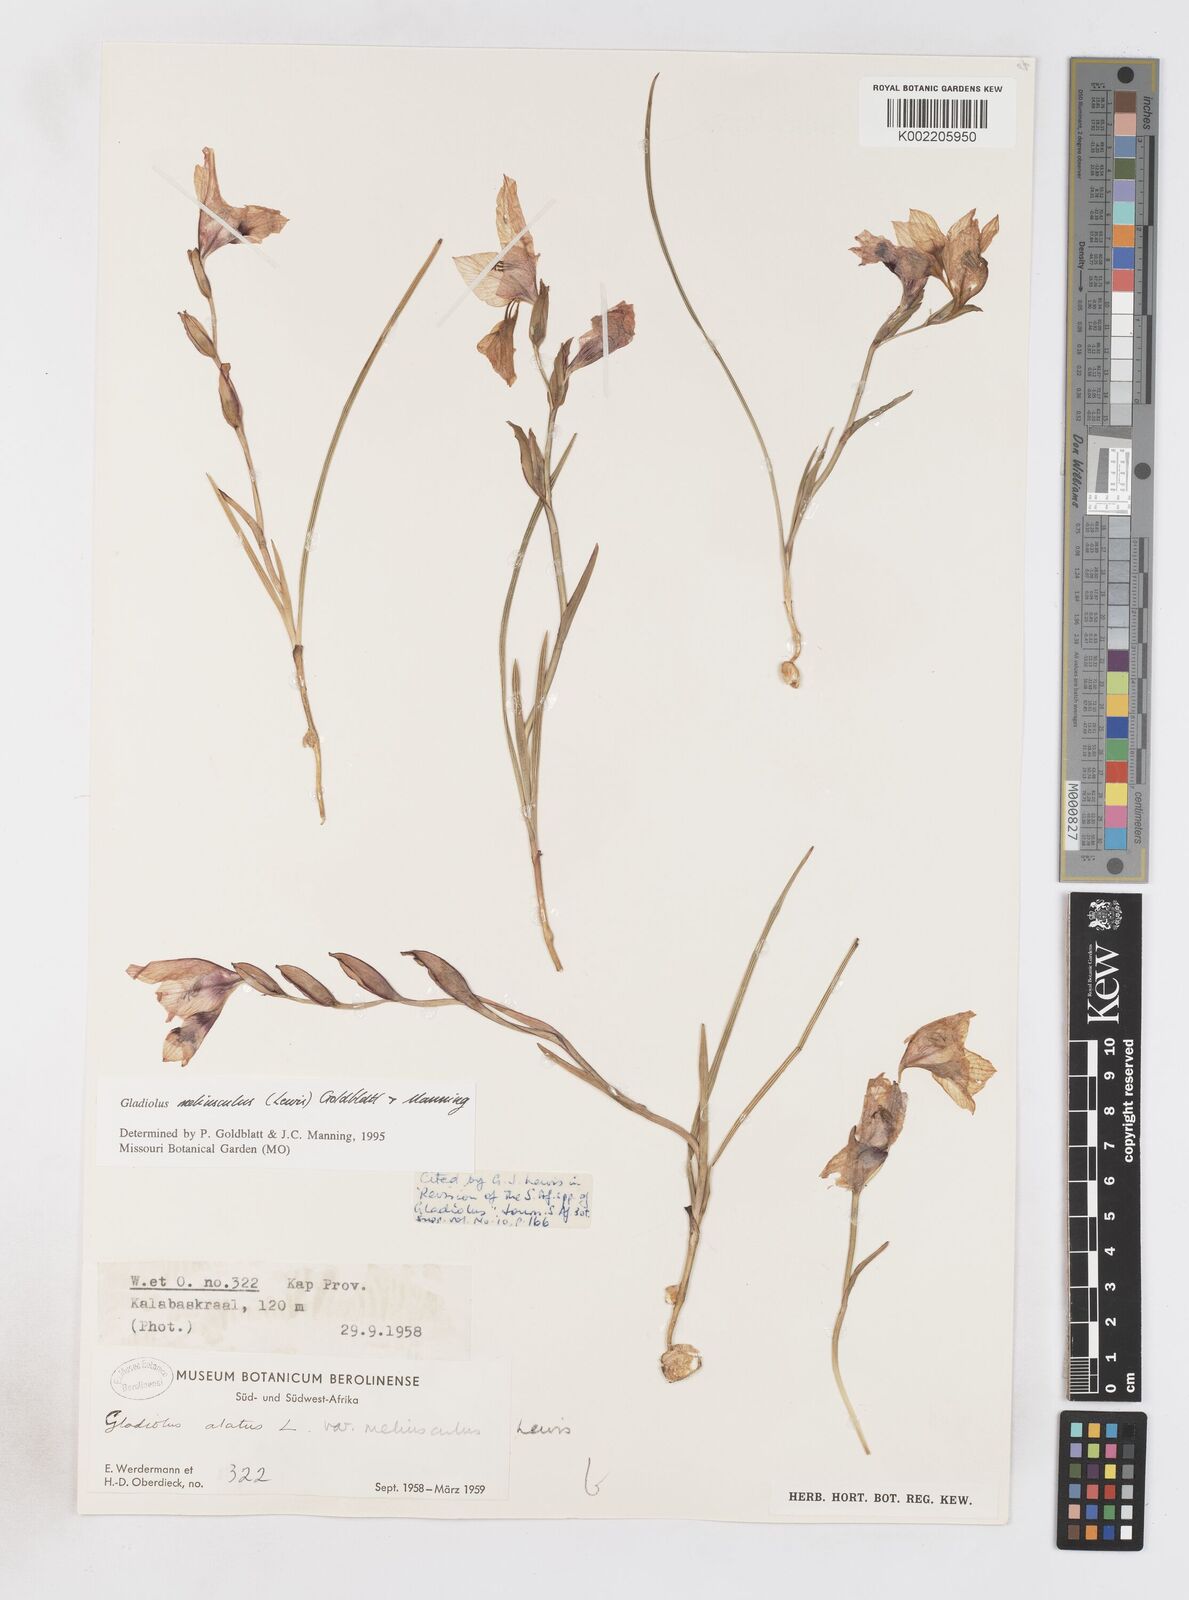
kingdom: Plantae
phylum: Tracheophyta
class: Liliopsida
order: Asparagales
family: Iridaceae
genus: Gladiolus
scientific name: Gladiolus meliusculus
